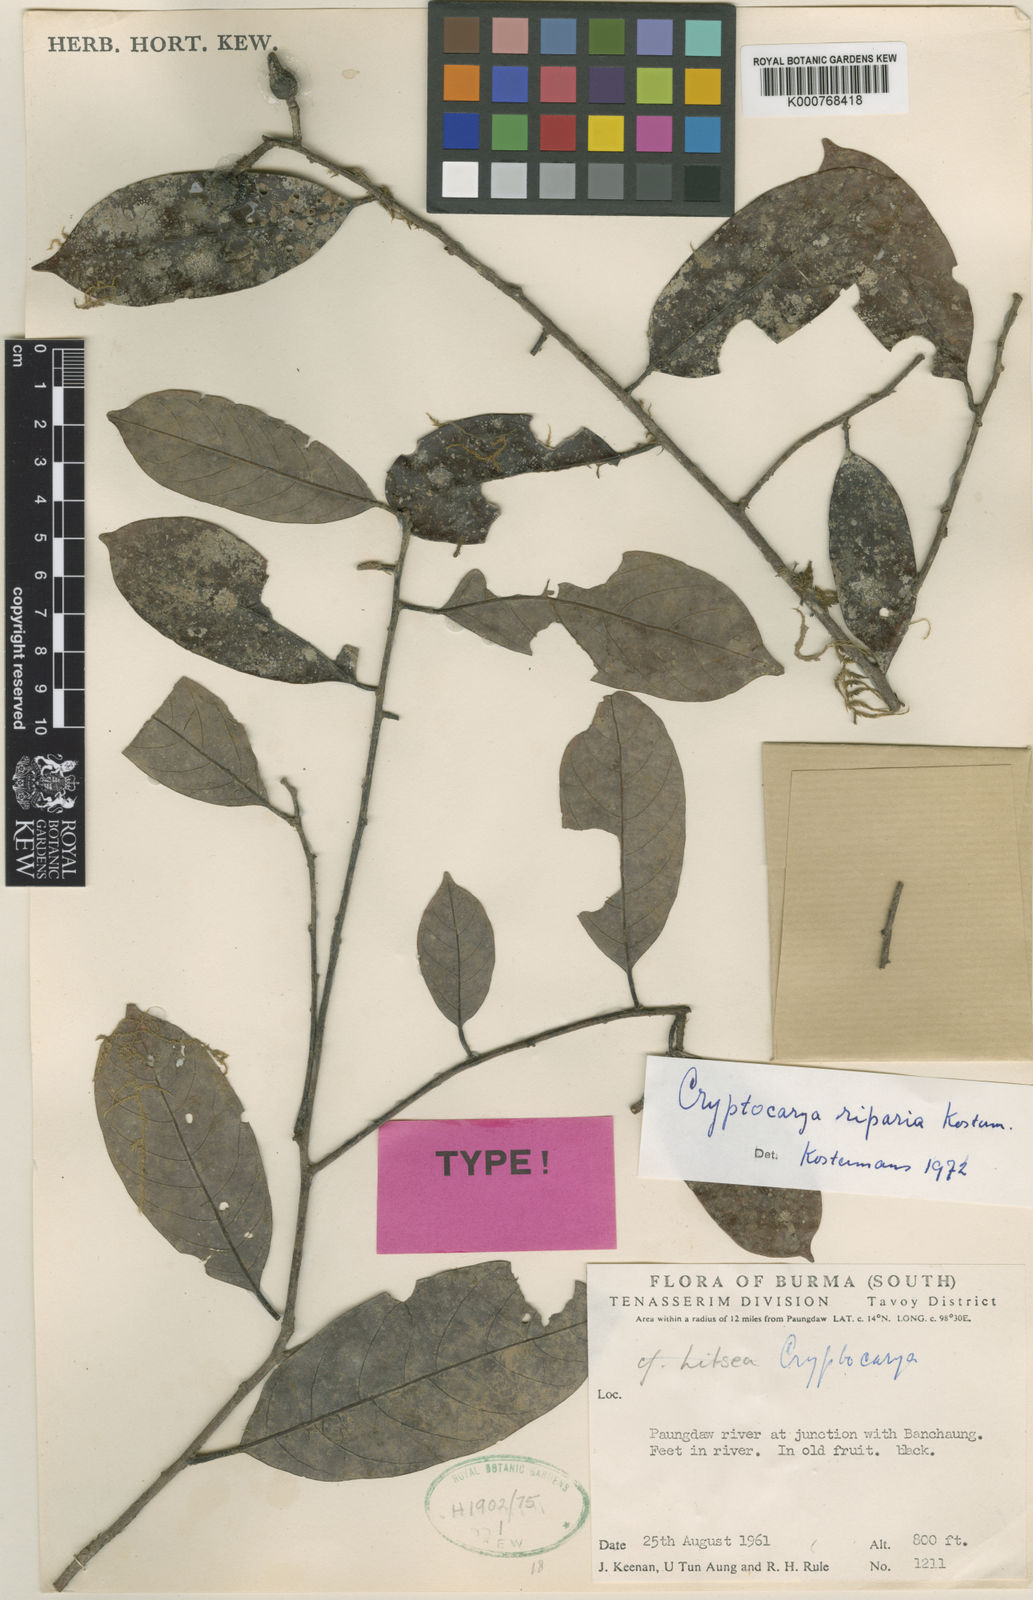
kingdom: Plantae
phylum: Tracheophyta
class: Magnoliopsida
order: Laurales
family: Lauraceae
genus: Cryptocarya
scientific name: Cryptocarya
